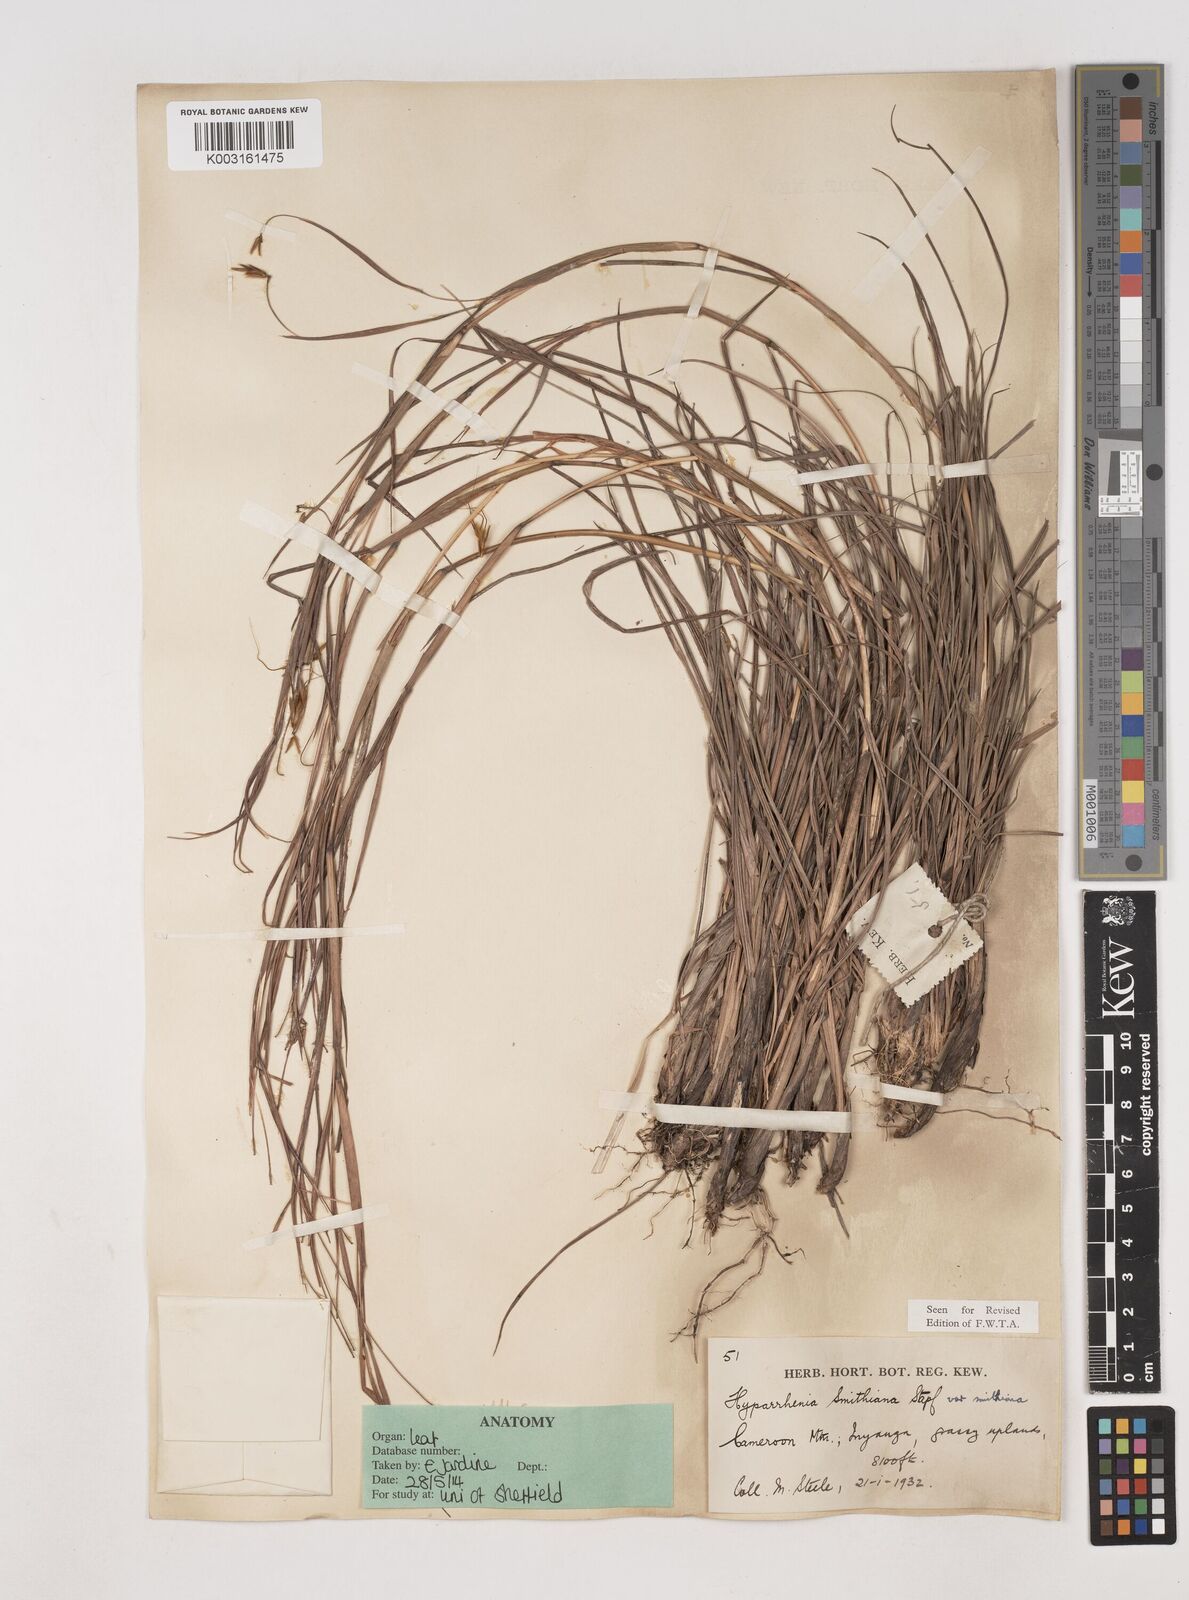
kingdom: Plantae
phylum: Tracheophyta
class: Liliopsida
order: Poales
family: Poaceae
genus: Hyparrhenia
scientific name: Hyparrhenia smithiana
